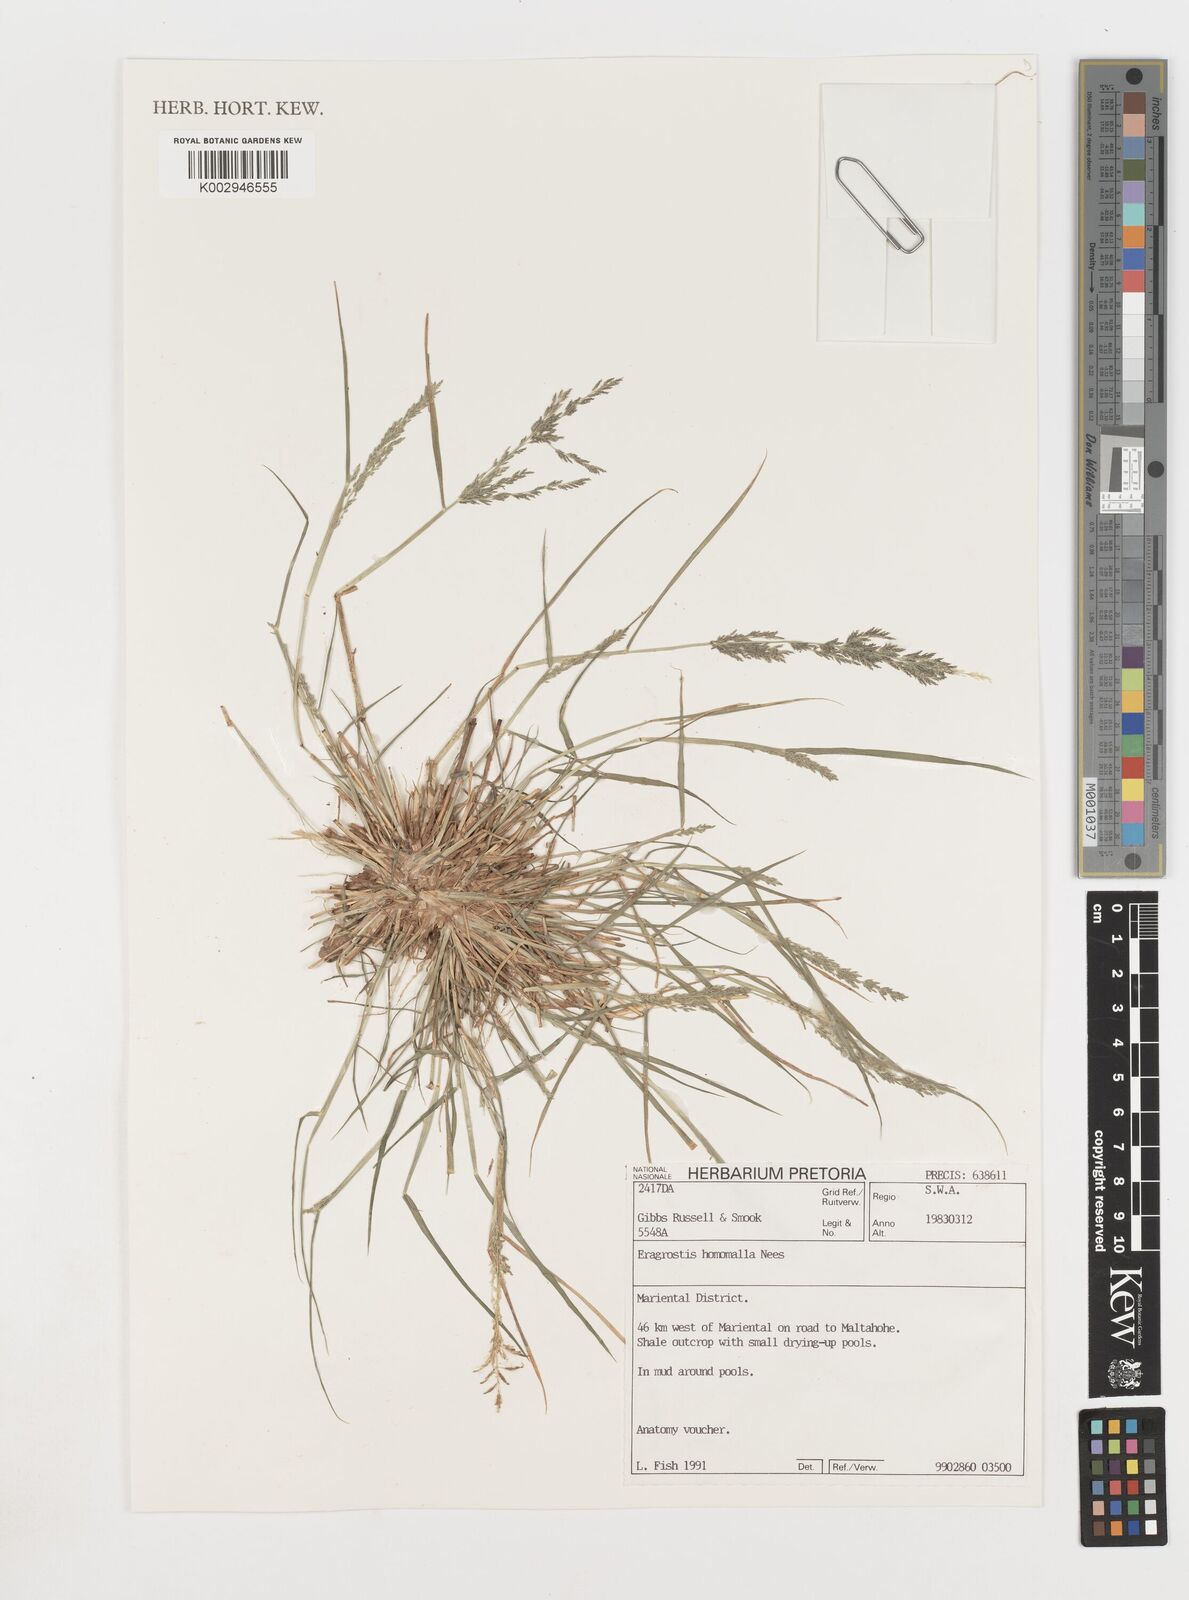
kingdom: Plantae
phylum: Tracheophyta
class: Liliopsida
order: Poales
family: Poaceae
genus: Eragrostis
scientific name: Eragrostis homomalla
